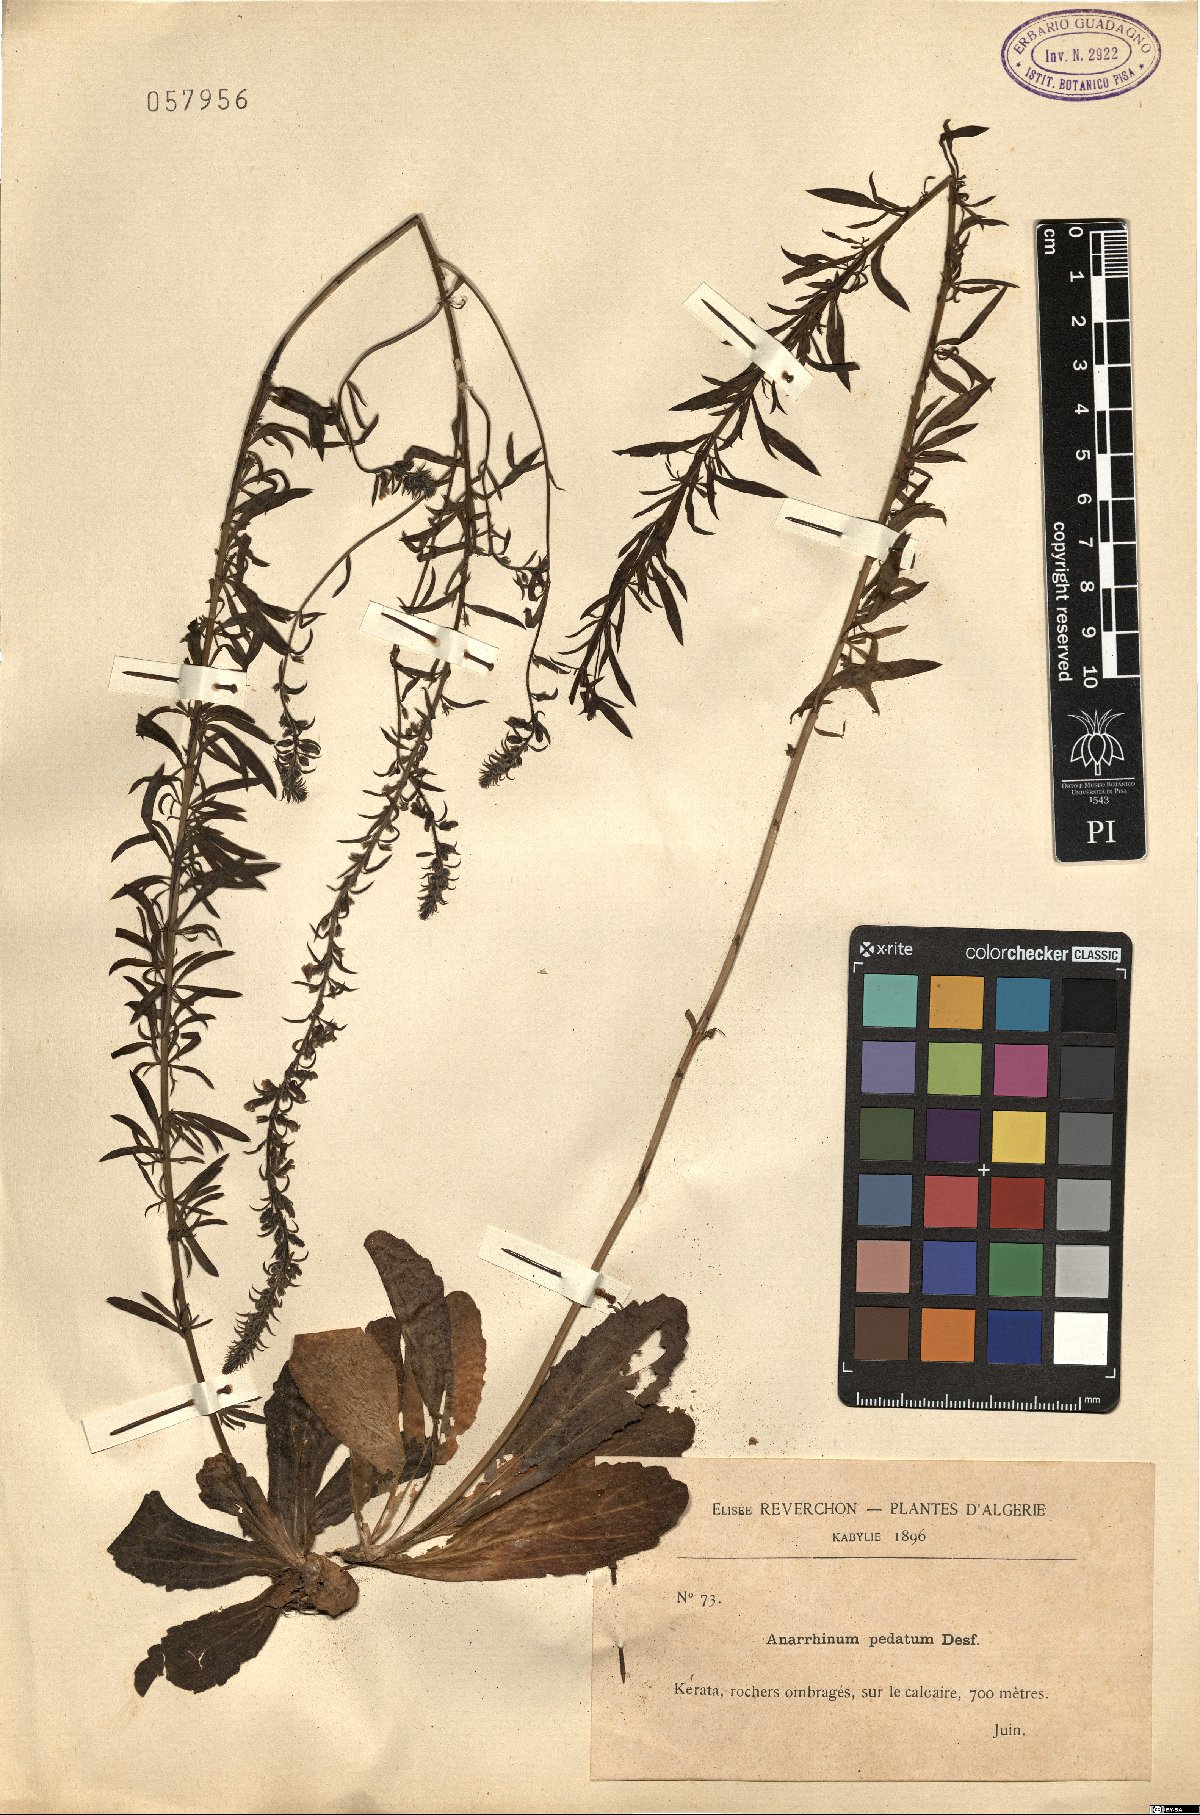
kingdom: Plantae
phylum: Tracheophyta
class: Magnoliopsida
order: Lamiales
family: Plantaginaceae
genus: Anarrhinum
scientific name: Anarrhinum pedatum
